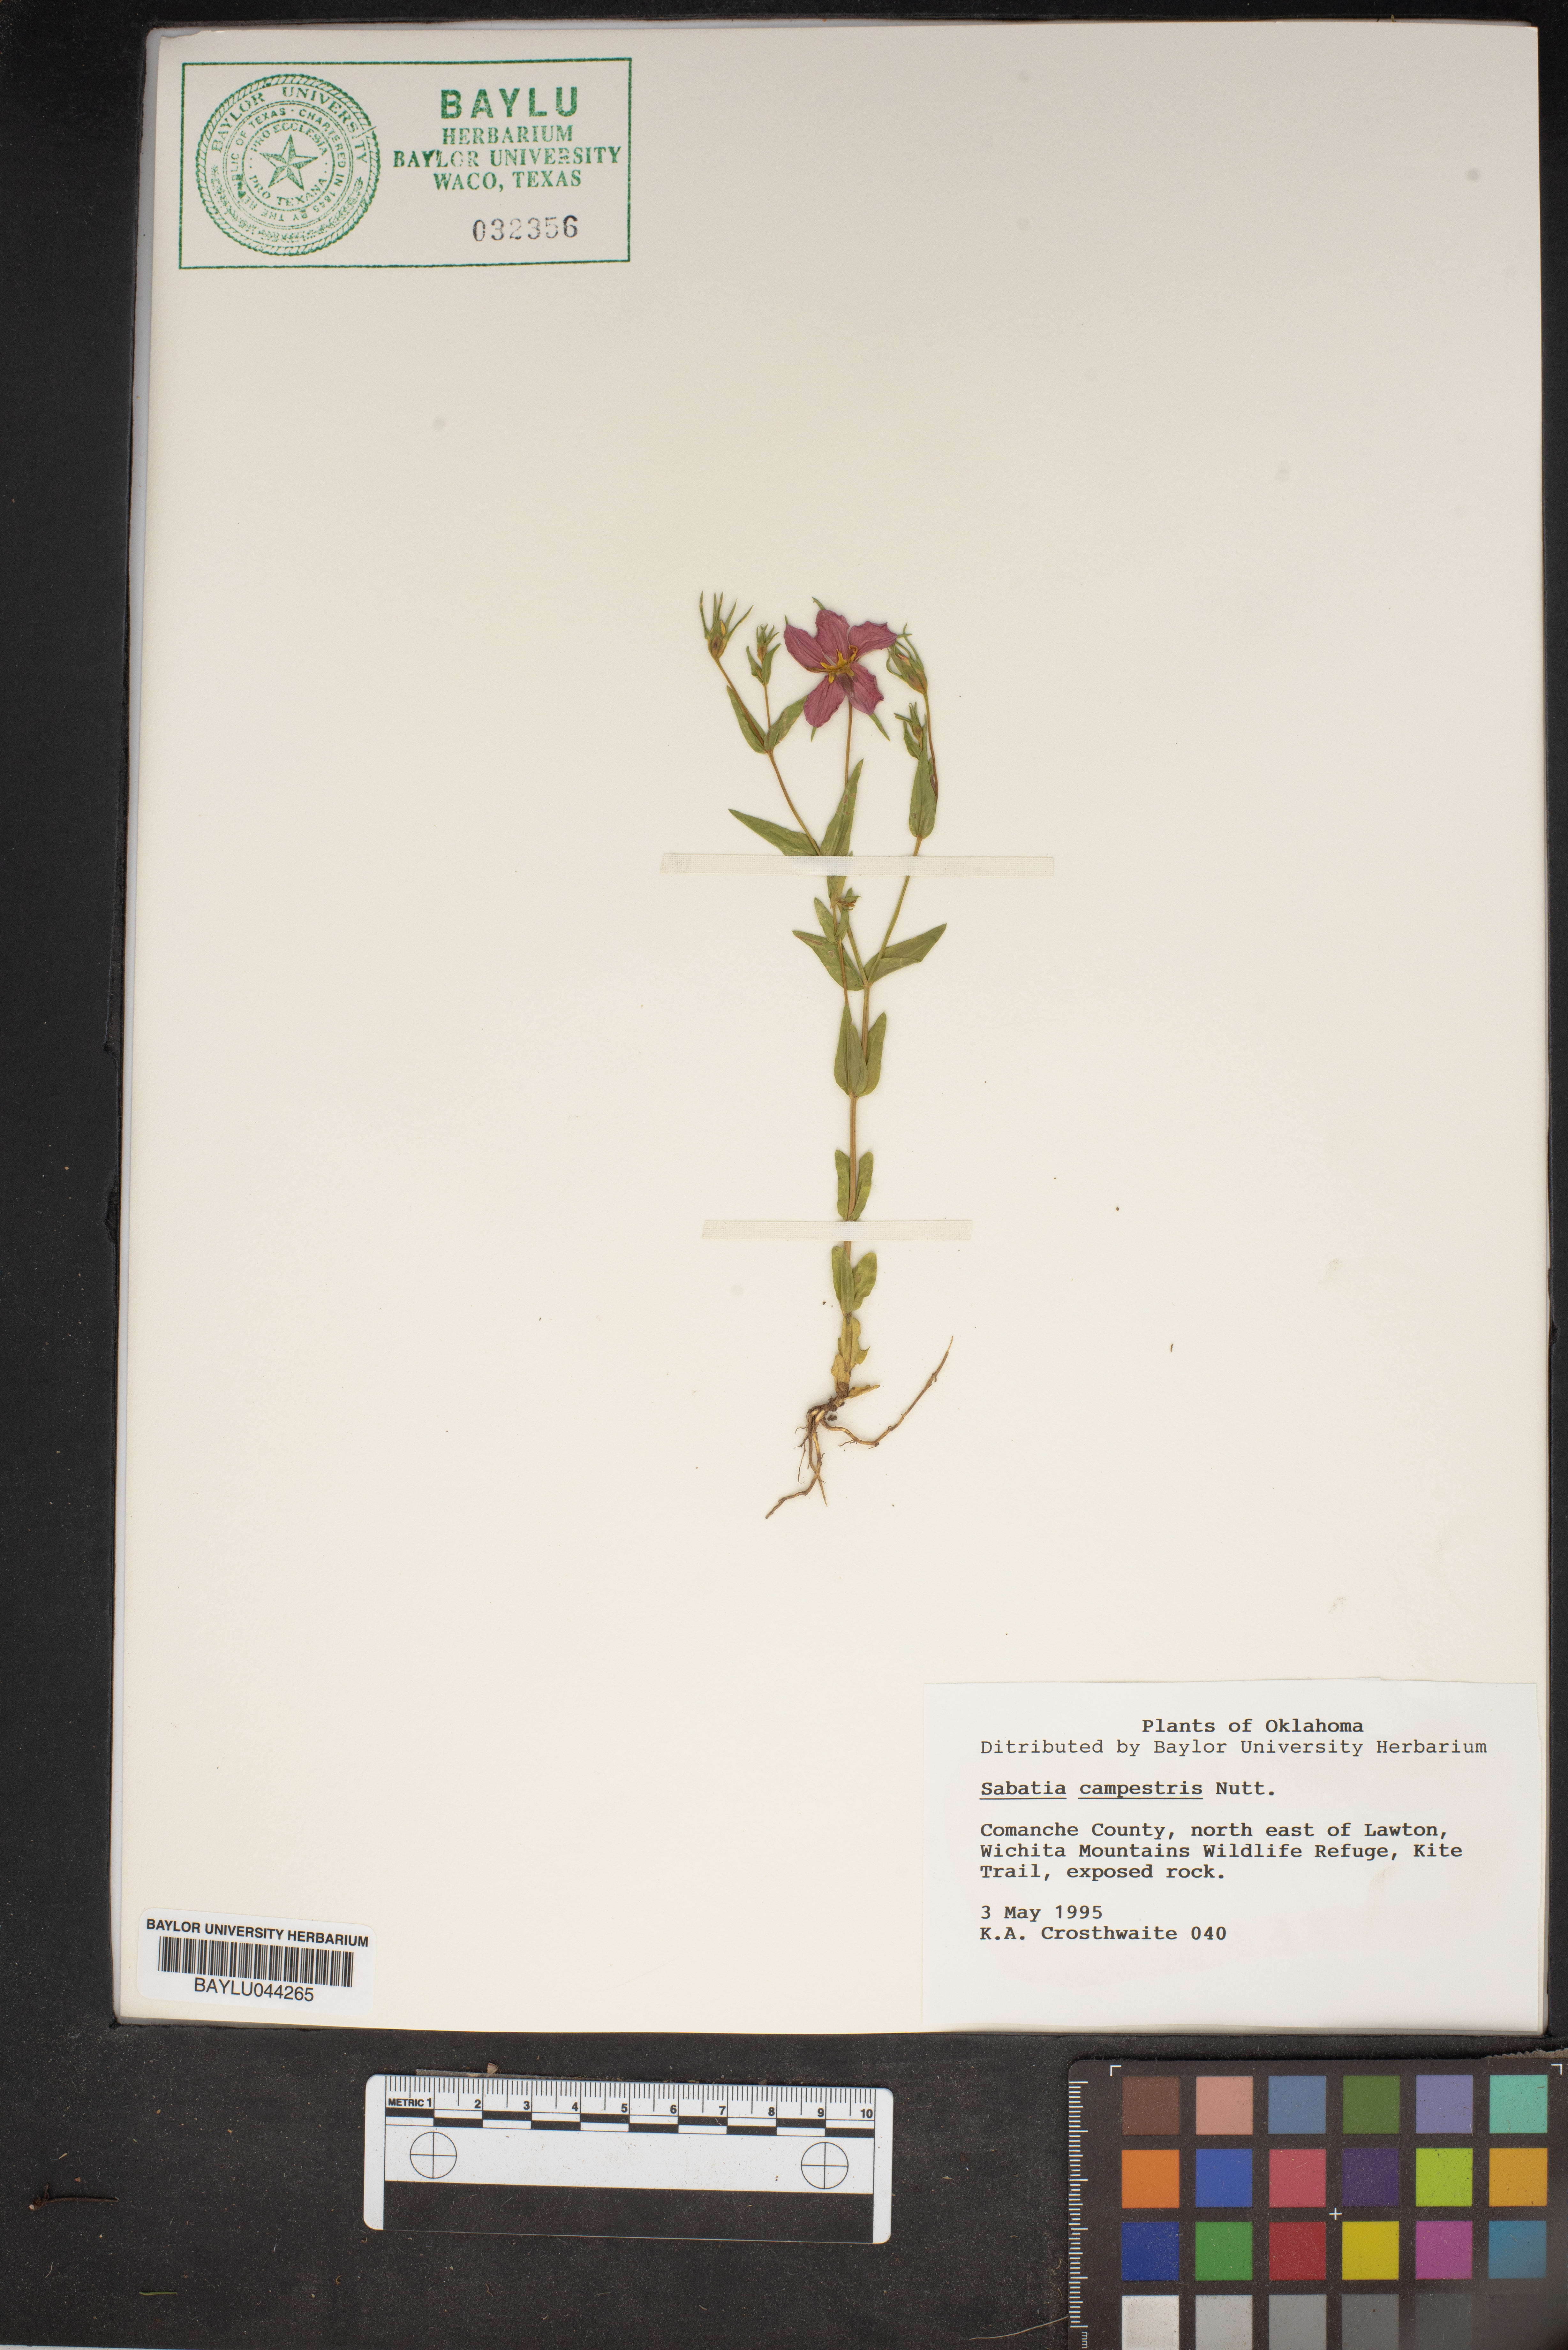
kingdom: Plantae
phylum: Tracheophyta
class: Magnoliopsida
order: Gentianales
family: Gentianaceae
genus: Sabatia
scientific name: Sabatia campestris
